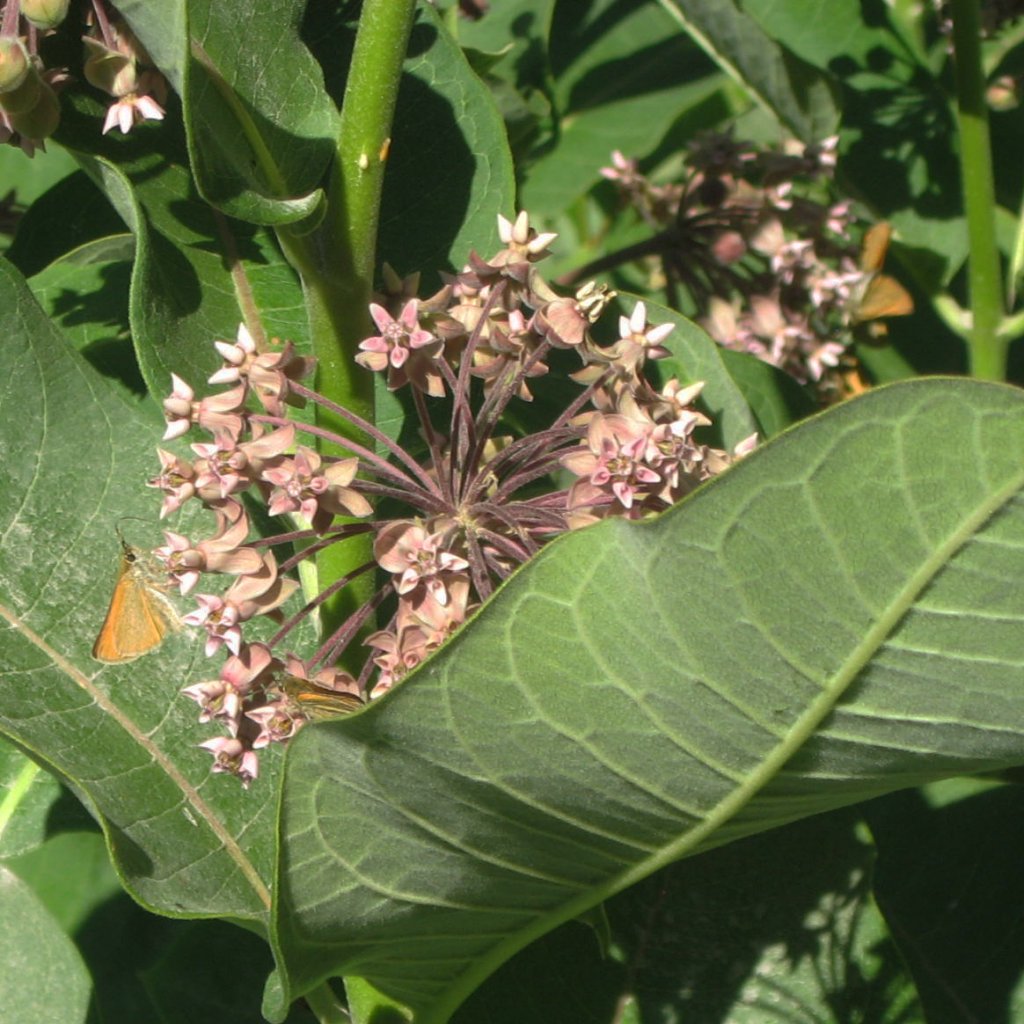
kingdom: Animalia
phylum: Arthropoda
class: Insecta
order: Lepidoptera
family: Hesperiidae
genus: Thymelicus
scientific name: Thymelicus lineola
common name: European Skipper
